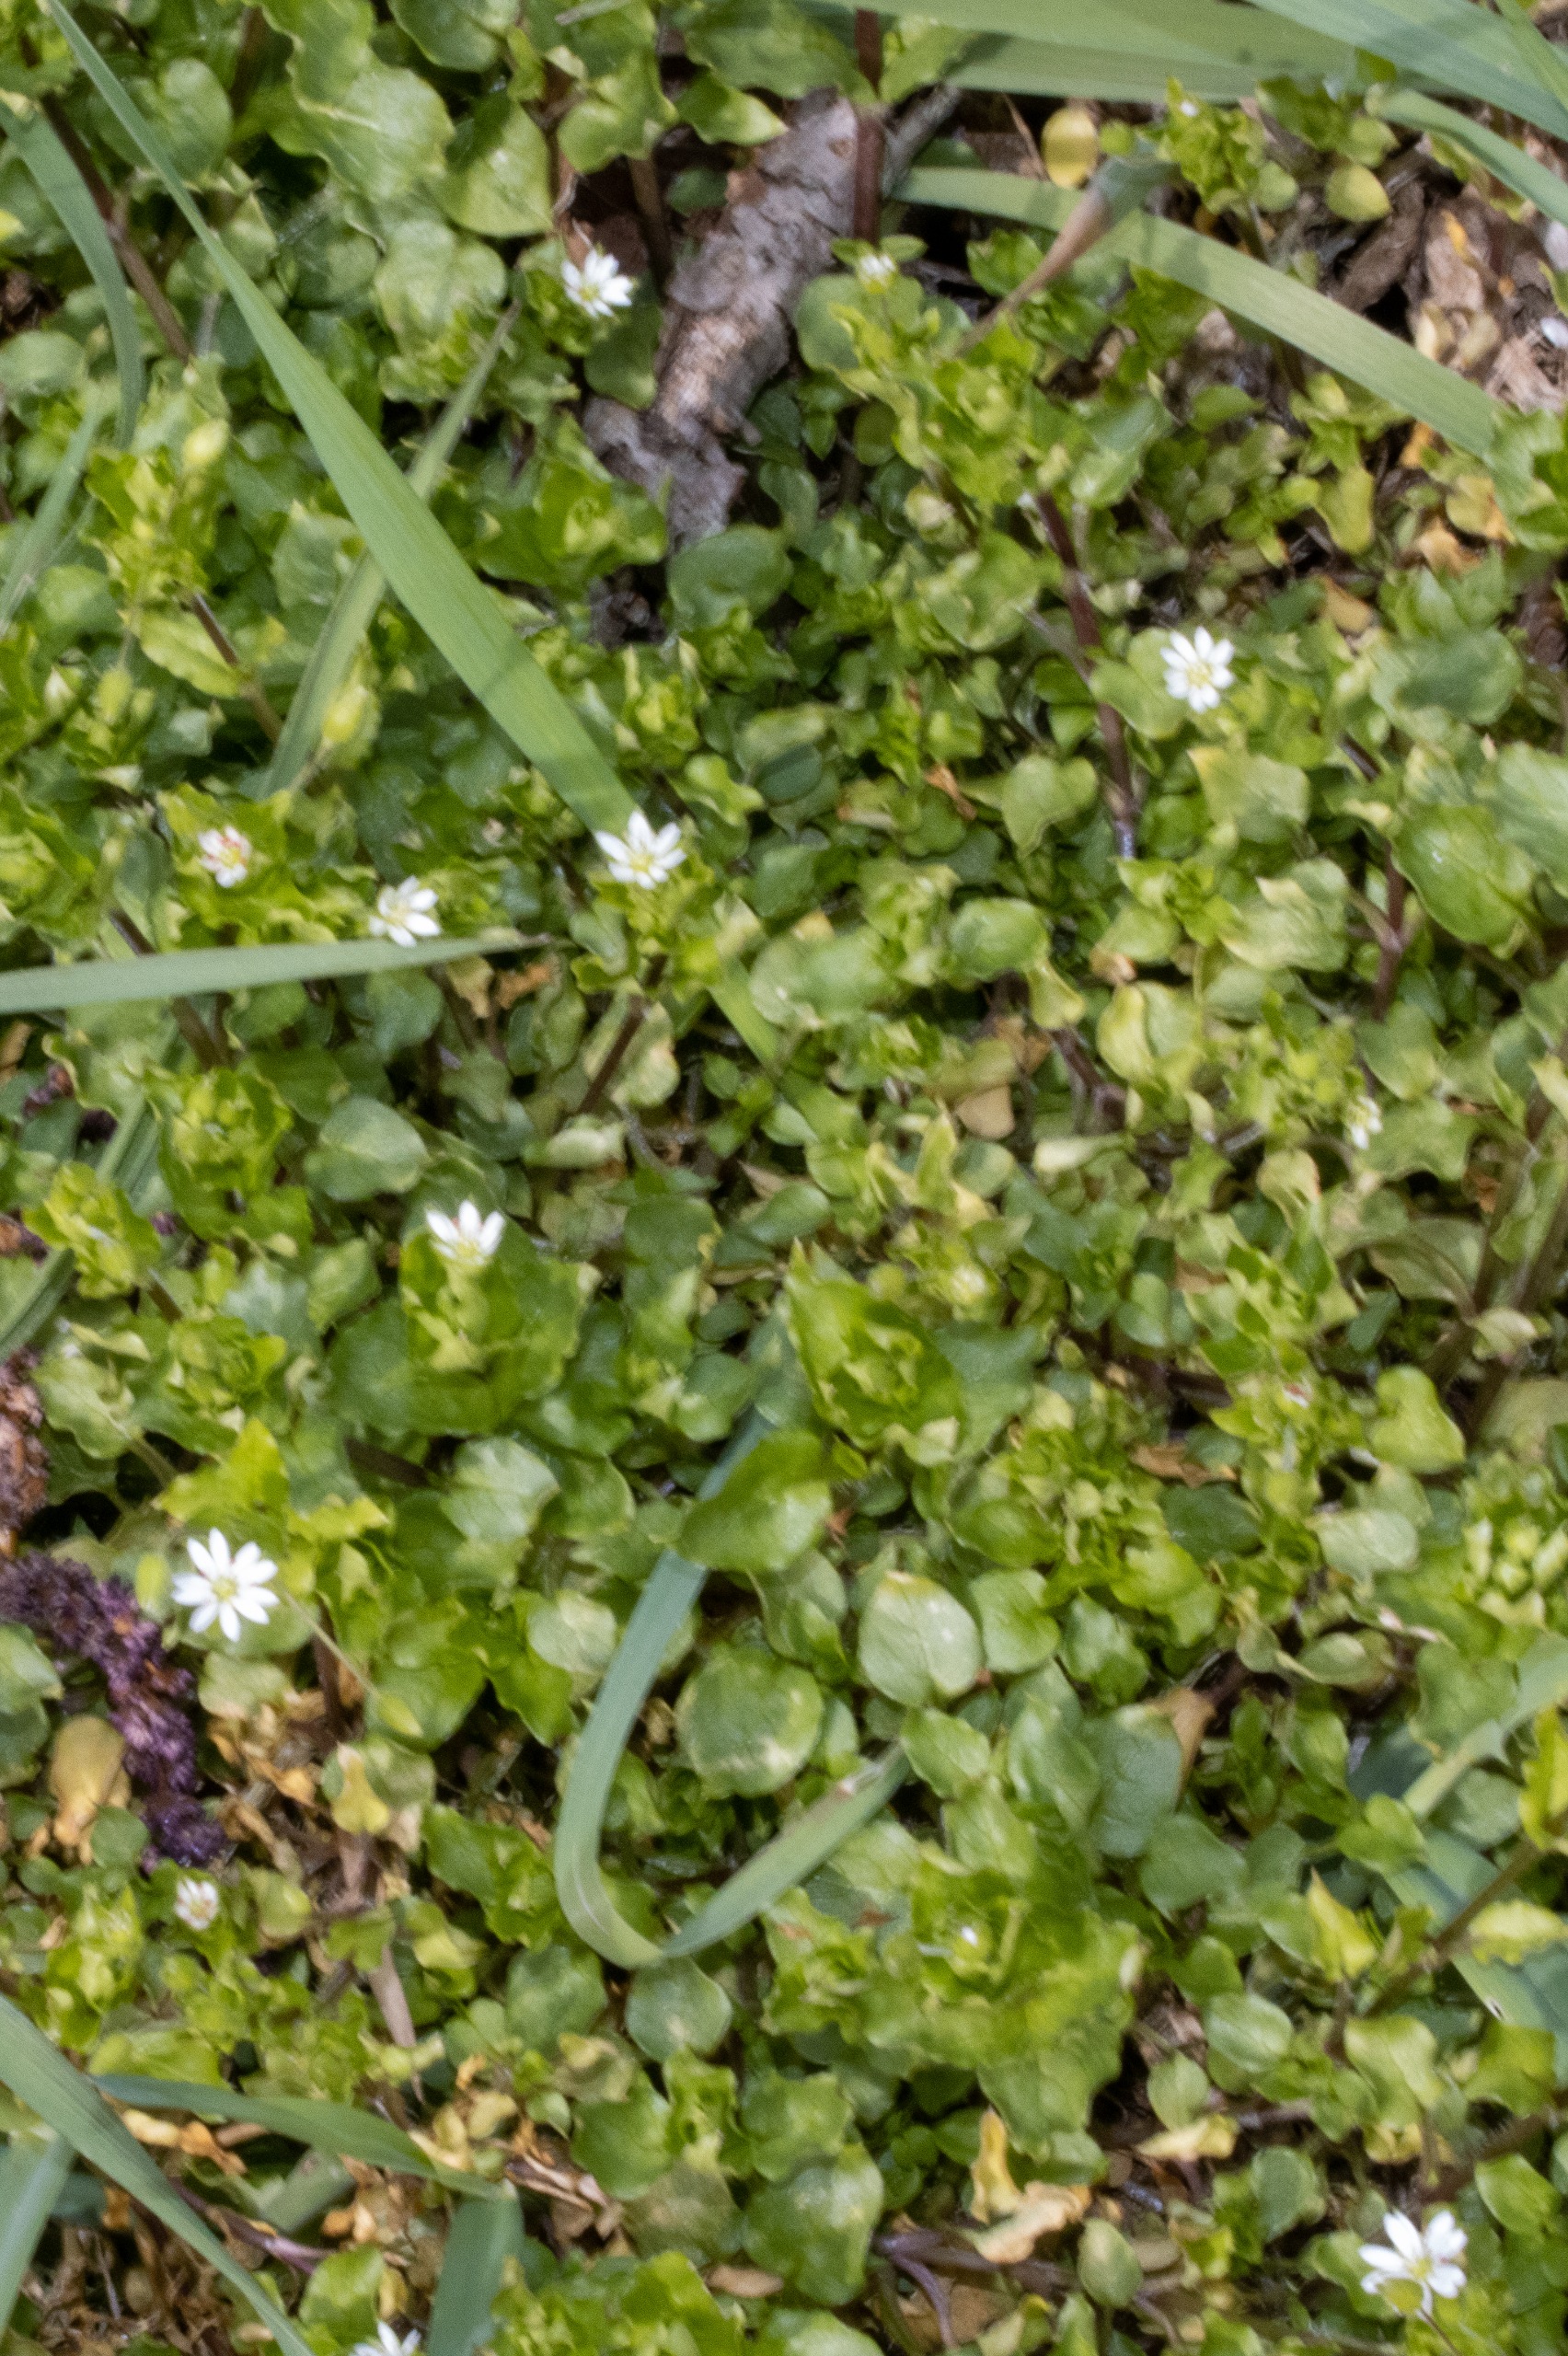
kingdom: Plantae
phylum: Tracheophyta
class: Magnoliopsida
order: Caryophyllales
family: Caryophyllaceae
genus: Stellaria
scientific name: Stellaria media
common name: Almindelig fuglegræs
